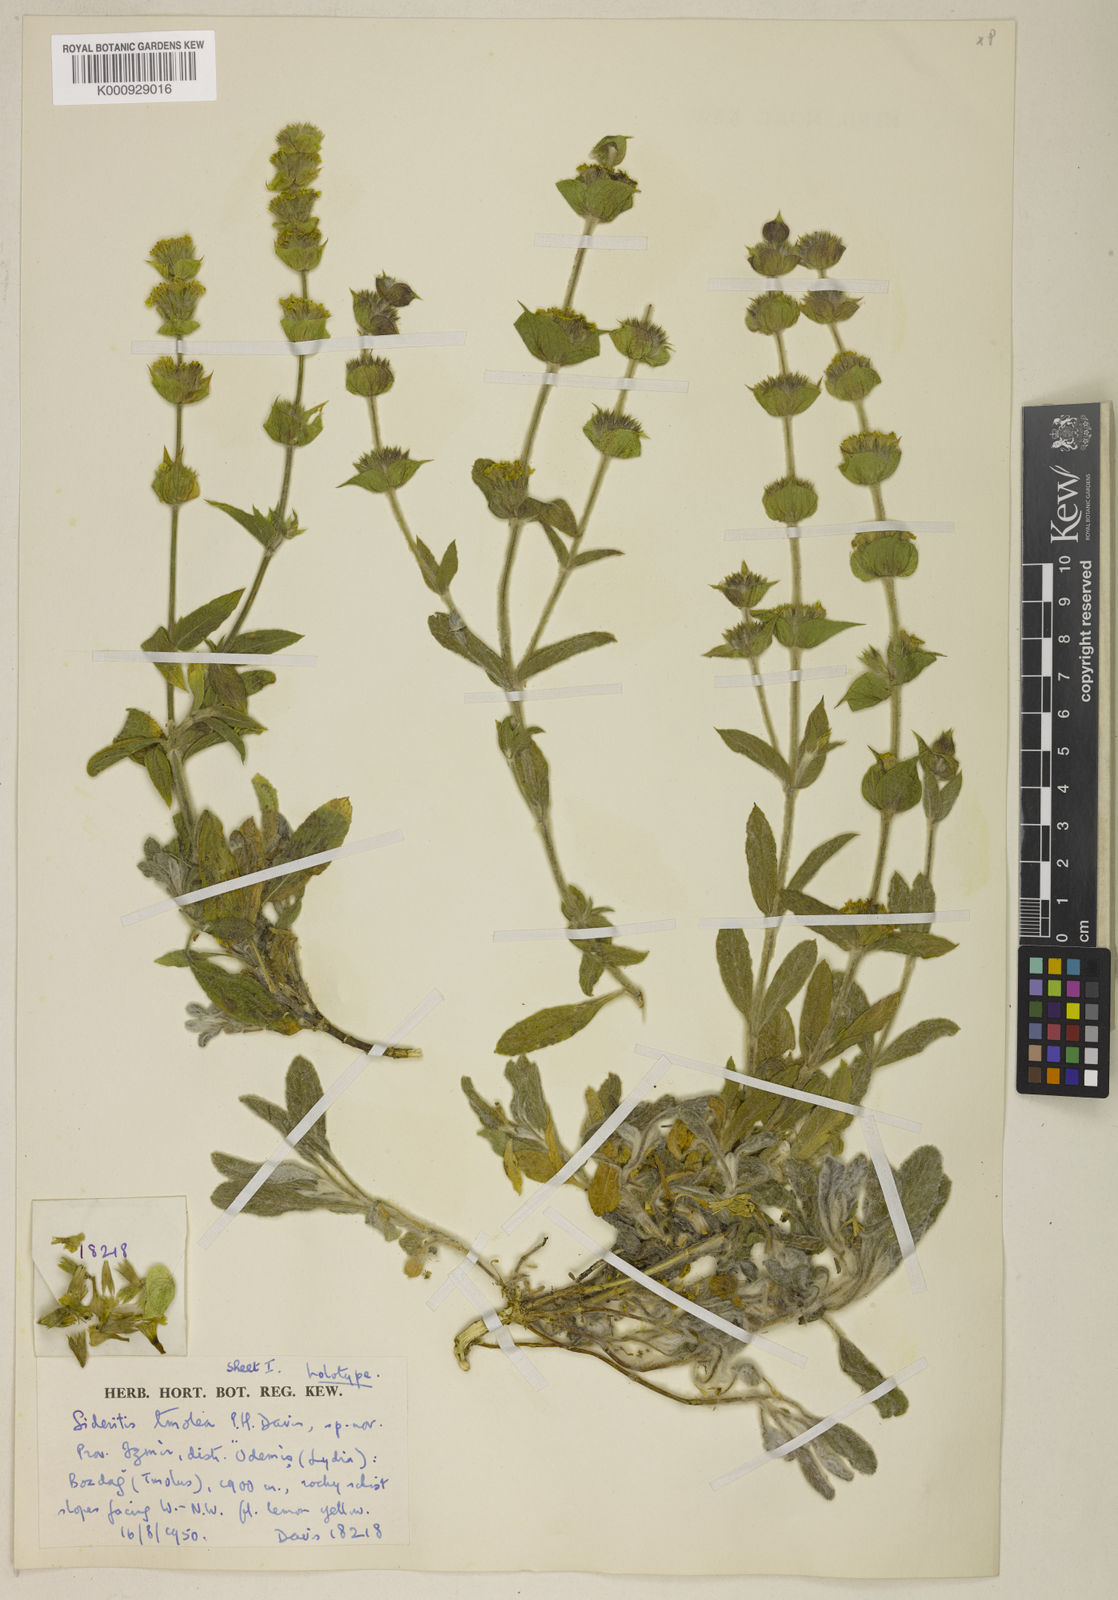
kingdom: Plantae
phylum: Tracheophyta
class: Magnoliopsida
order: Lamiales
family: Lamiaceae
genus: Sideritis
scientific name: Sideritis tmolea
